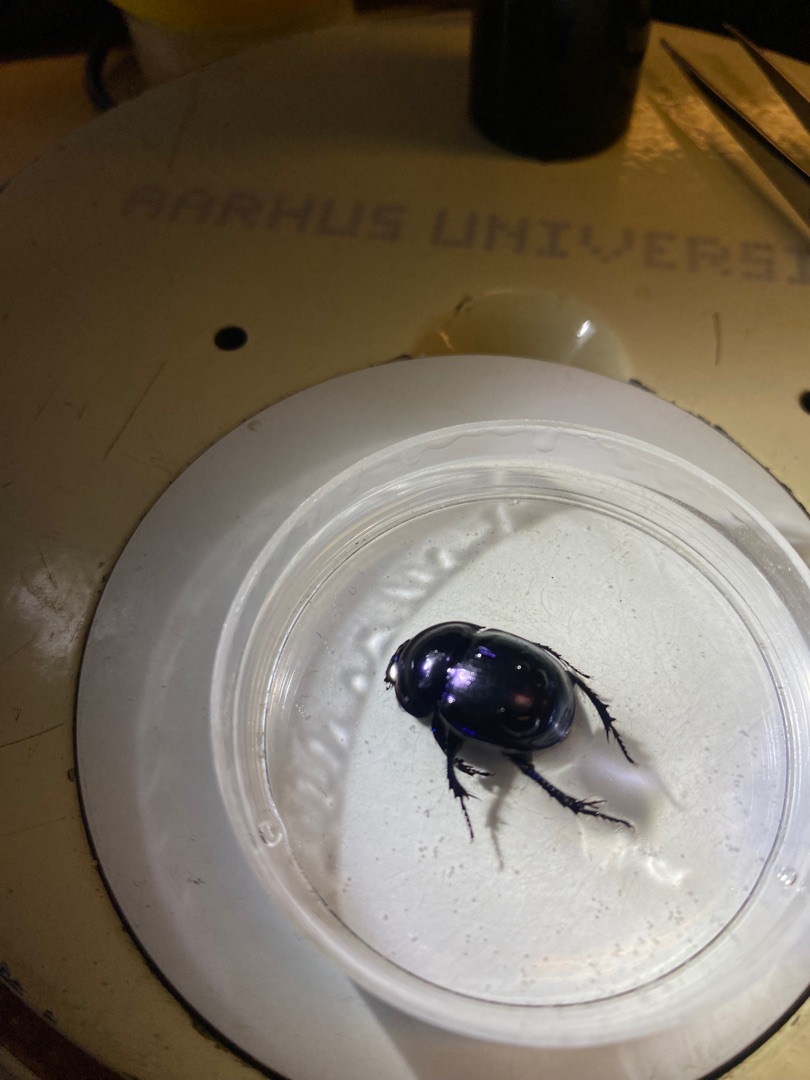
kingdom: Animalia
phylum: Arthropoda
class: Insecta
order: Coleoptera
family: Geotrupidae
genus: Trypocopris
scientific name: Trypocopris vernalis
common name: Glat skarnbasse
